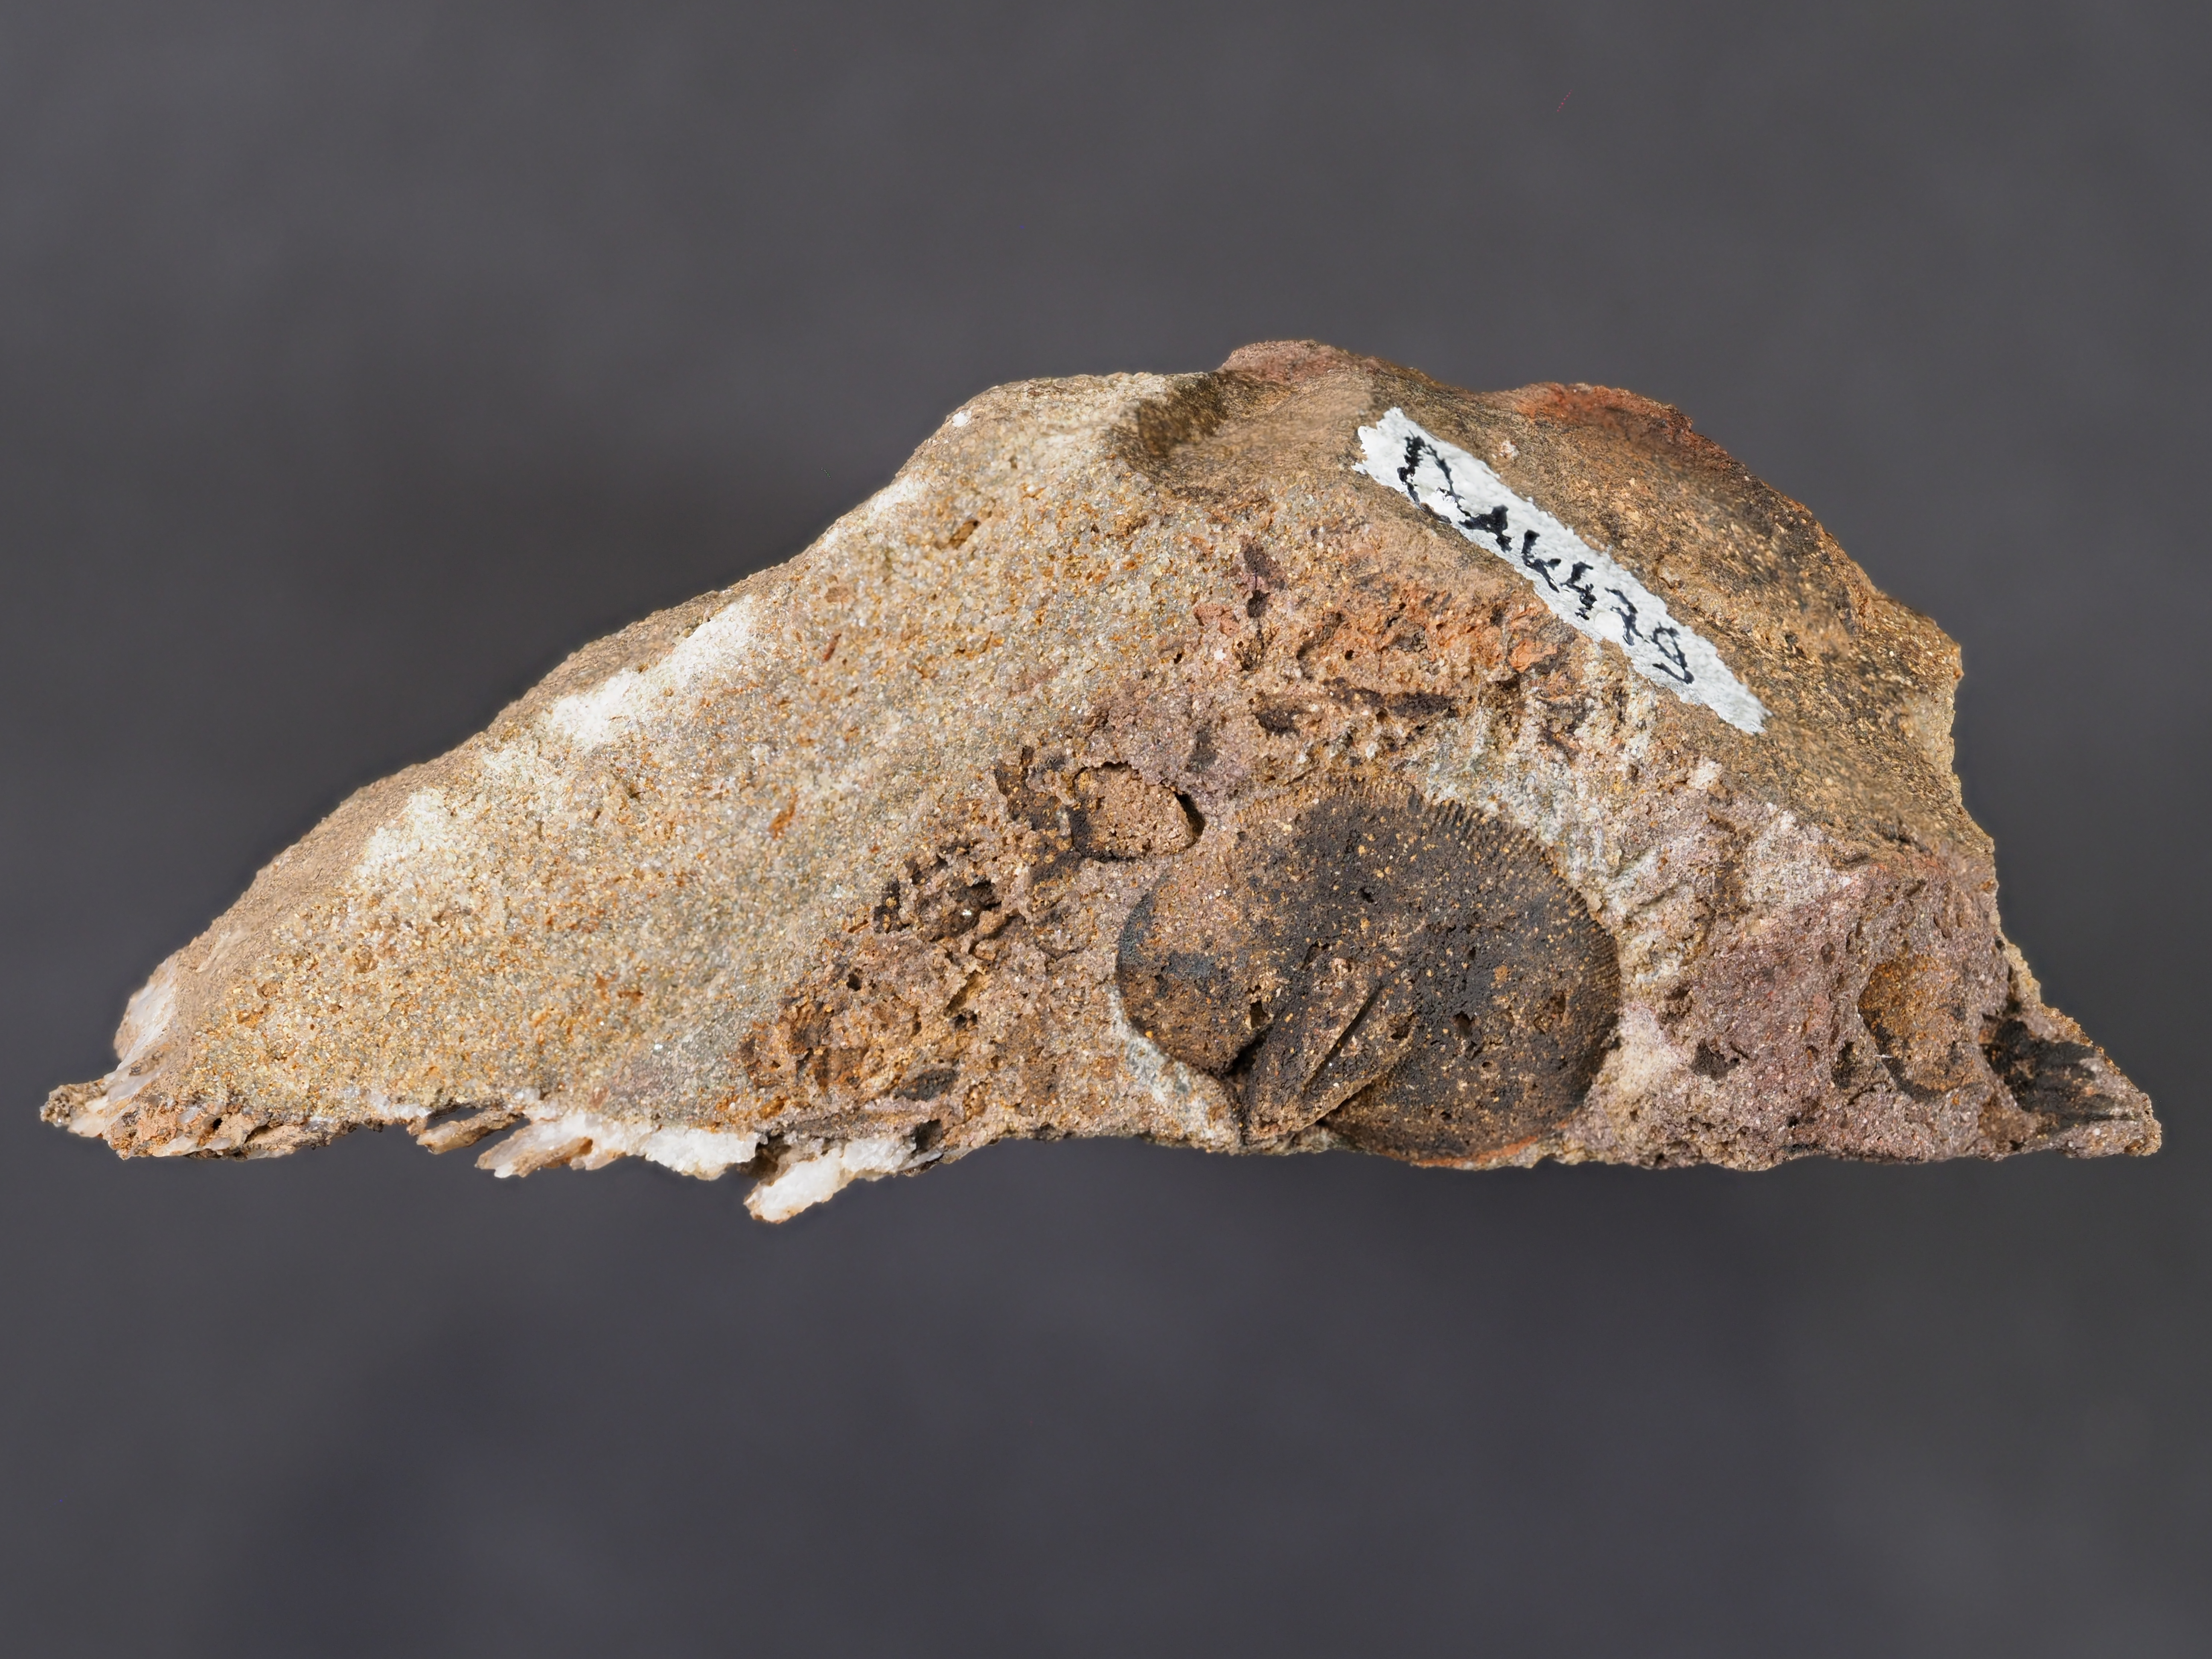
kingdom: Animalia
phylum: Brachiopoda
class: Rhynchonellata
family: Rhipidomellidae
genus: Platyorthis
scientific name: Platyorthis
